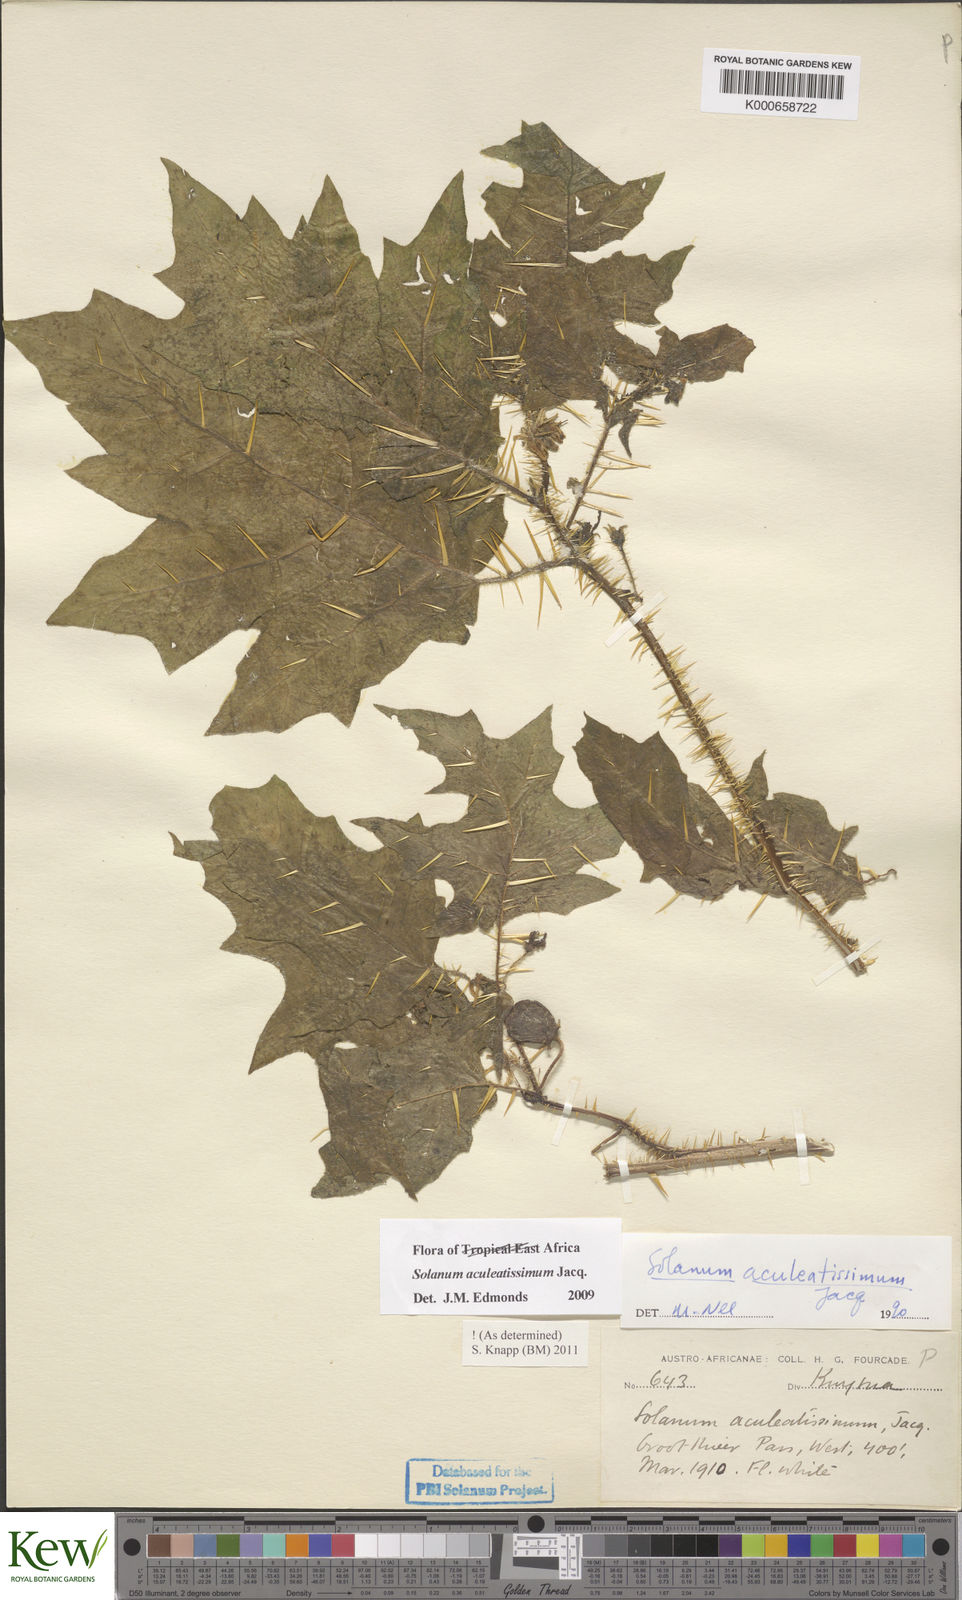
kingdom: Plantae
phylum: Tracheophyta
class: Magnoliopsida
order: Solanales
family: Solanaceae
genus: Solanum
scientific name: Solanum aculeatissimum
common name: Dutch eggplant
